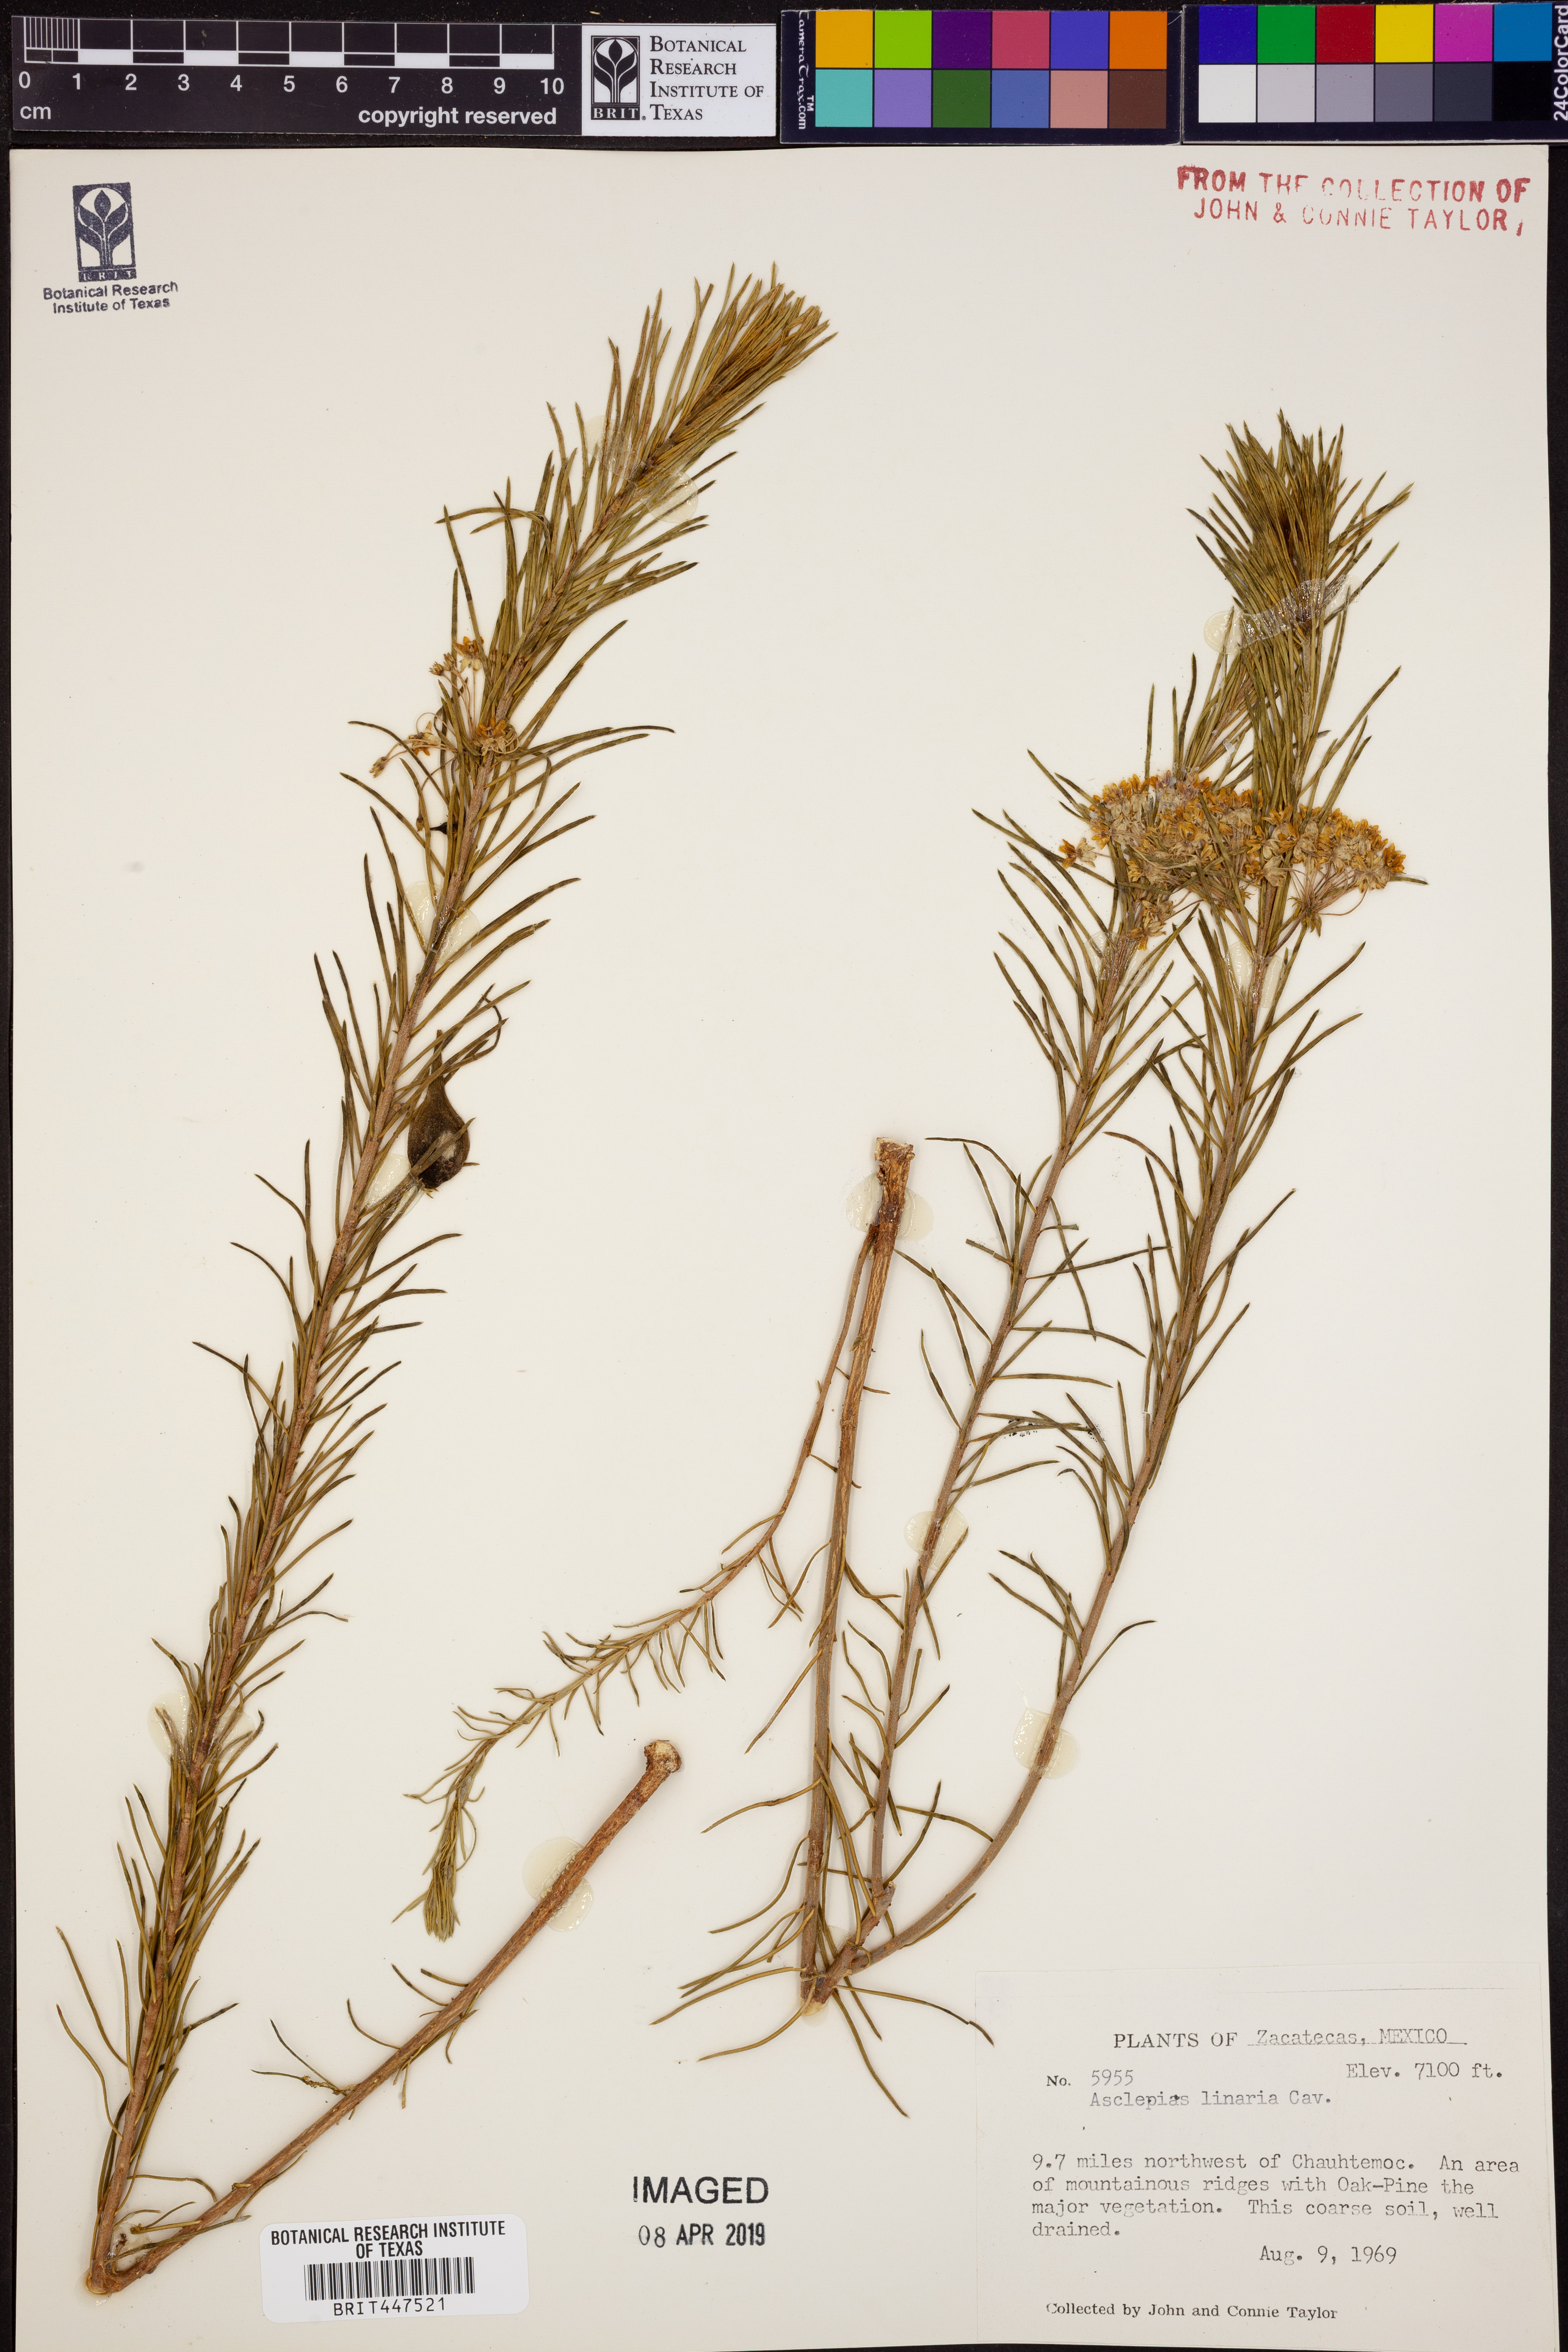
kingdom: Plantae
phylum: Tracheophyta
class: Magnoliopsida
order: Gentianales
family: Apocynaceae
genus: Asclepias
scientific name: Asclepias linaria
